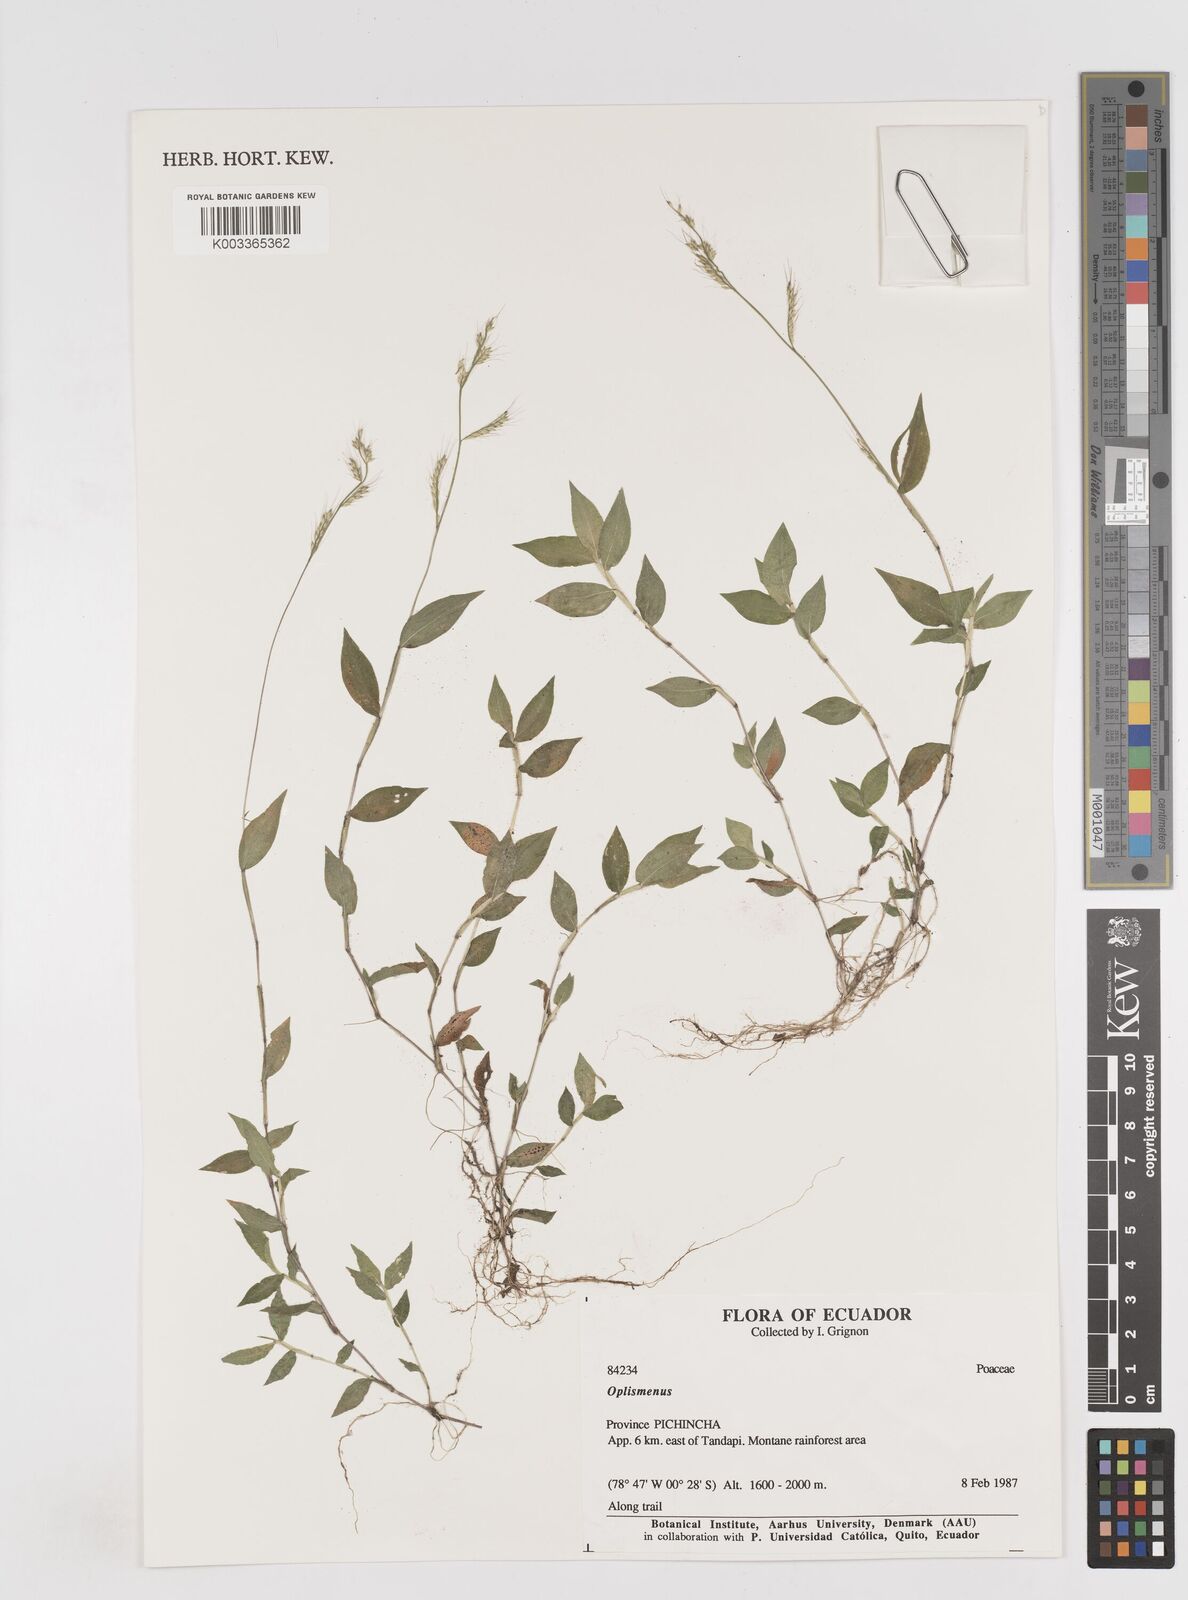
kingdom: Plantae
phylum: Tracheophyta
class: Liliopsida
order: Poales
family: Poaceae
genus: Oplismenus
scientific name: Oplismenus burmanni
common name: Burmann's basketgrass
